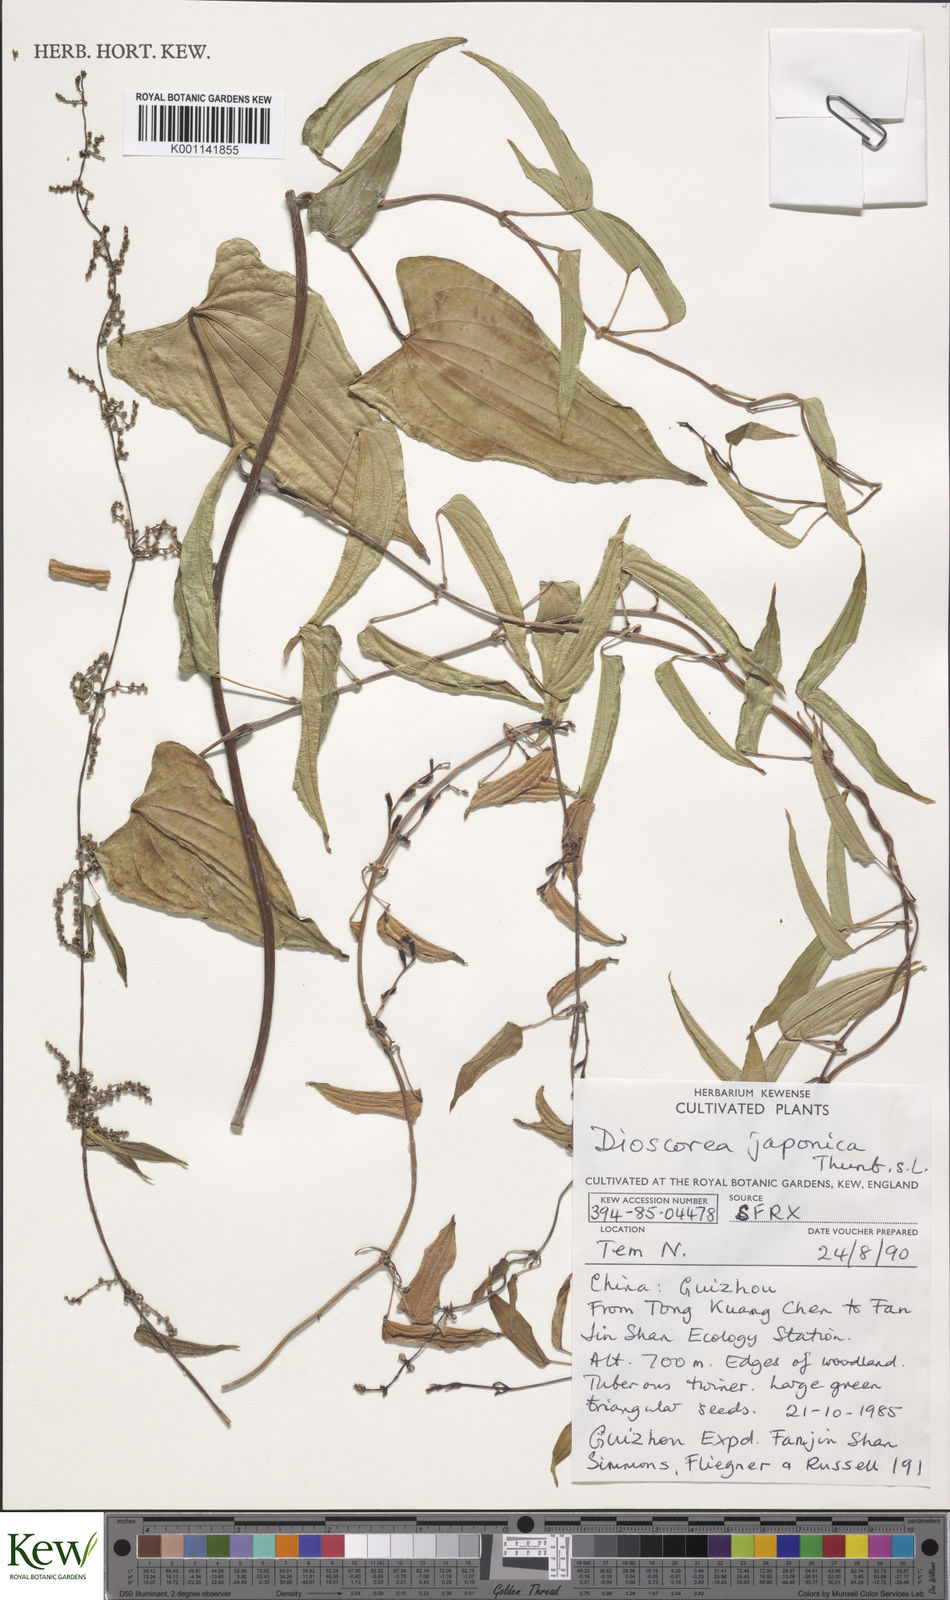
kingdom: Plantae
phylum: Tracheophyta
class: Liliopsida
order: Dioscoreales
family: Dioscoreaceae
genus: Dioscorea
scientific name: Dioscorea japonica
